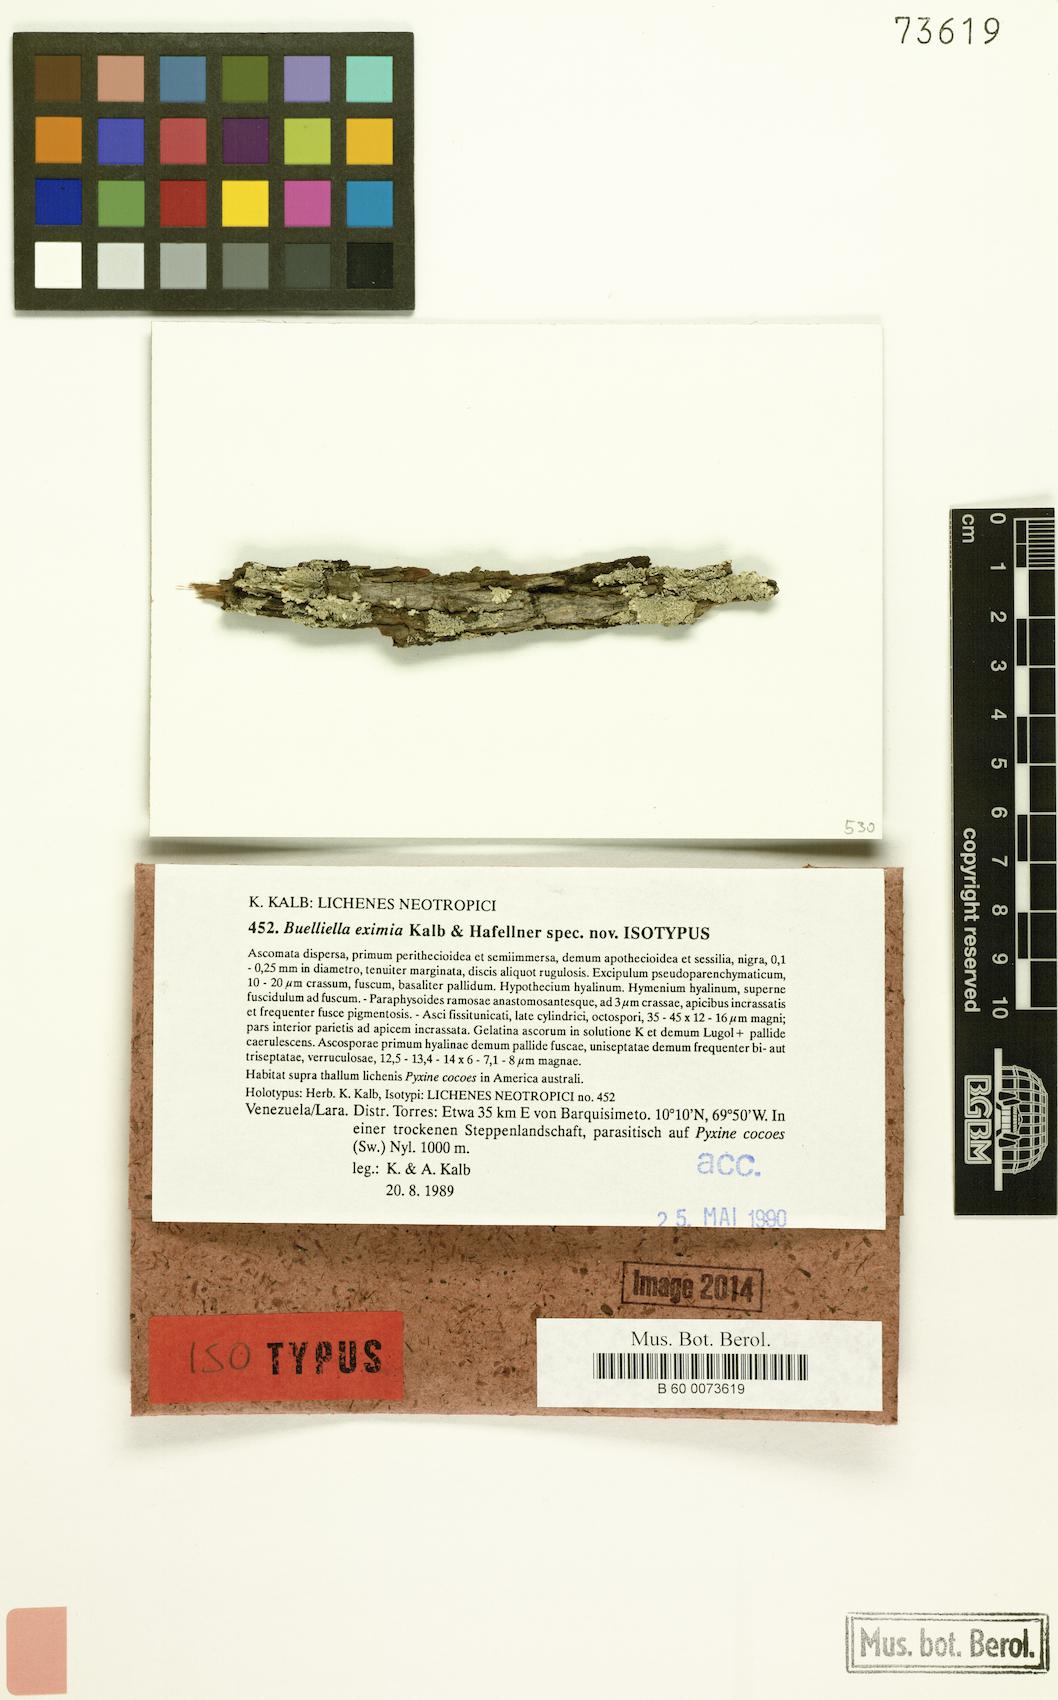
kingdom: Fungi
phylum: Ascomycota
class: Dothideomycetes
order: Dothideales
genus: Buelliella
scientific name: Buelliella eximia
